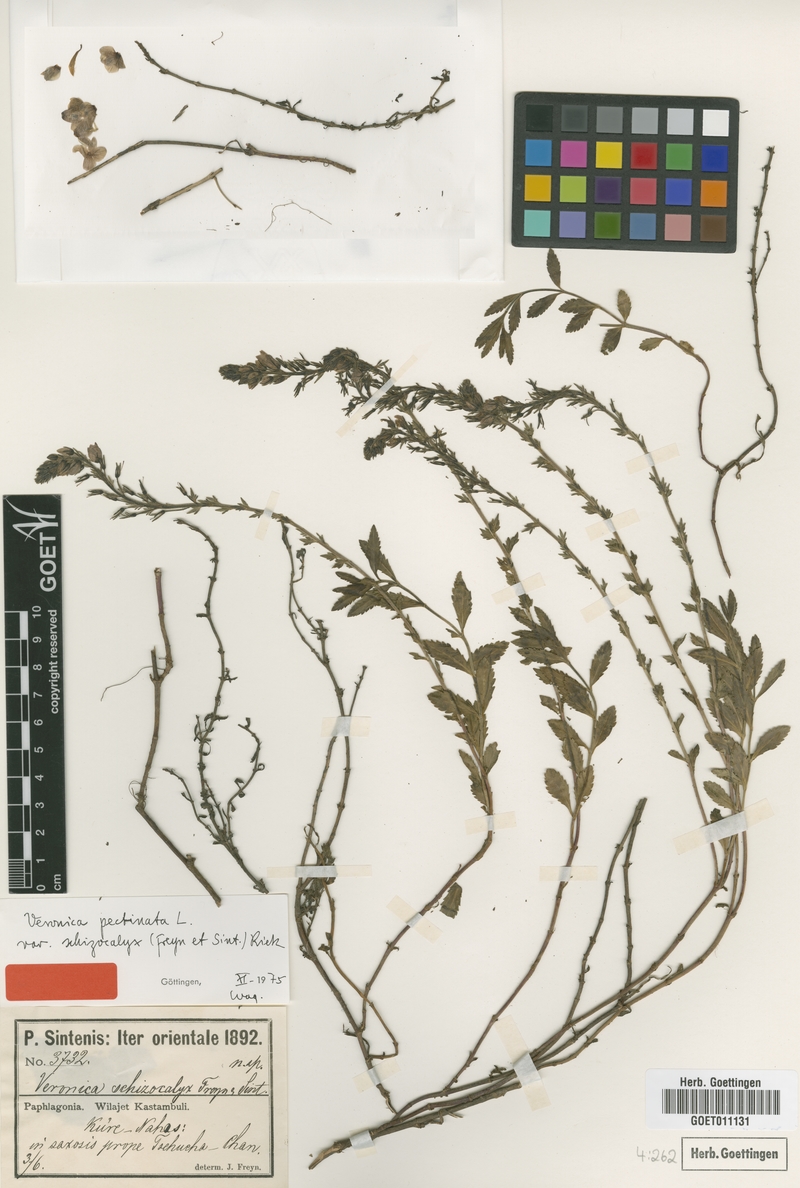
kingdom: Plantae
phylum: Tracheophyta
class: Magnoliopsida
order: Lamiales
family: Plantaginaceae
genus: Veronica
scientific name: Veronica pectinata
